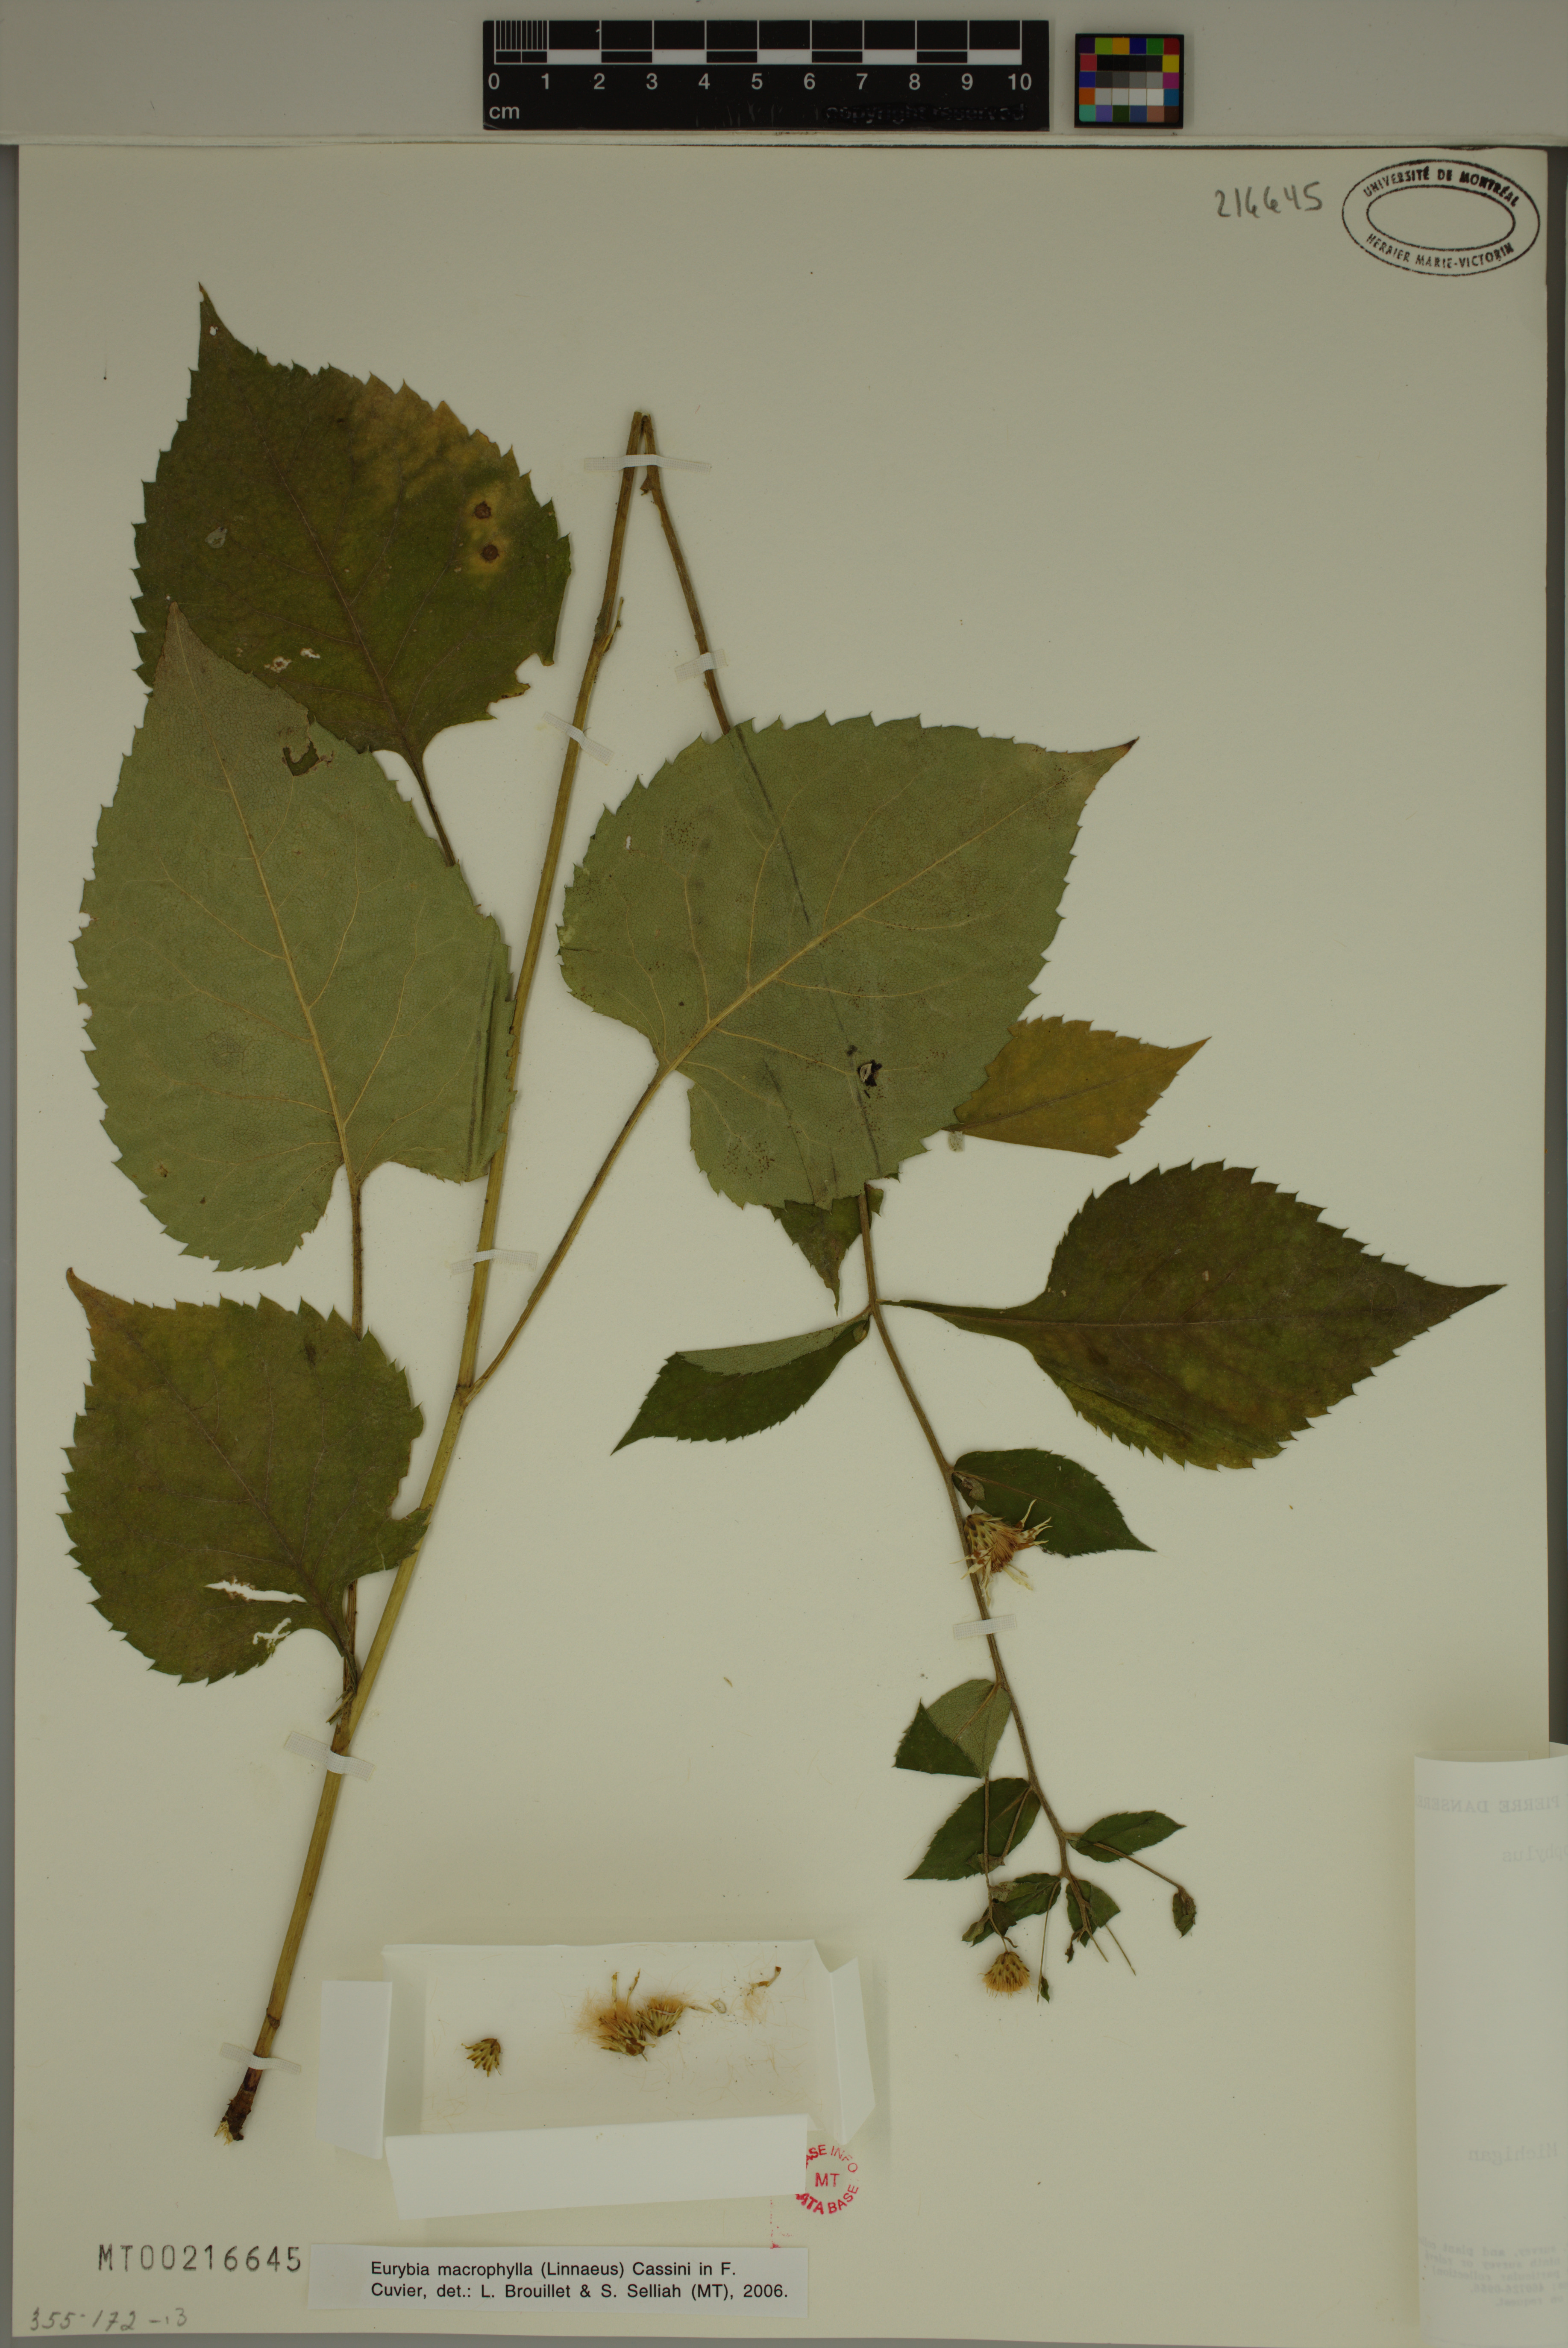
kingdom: Plantae
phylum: Tracheophyta
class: Magnoliopsida
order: Asterales
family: Asteraceae
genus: Eurybia
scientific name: Eurybia macrophylla
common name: Big-leaved aster
